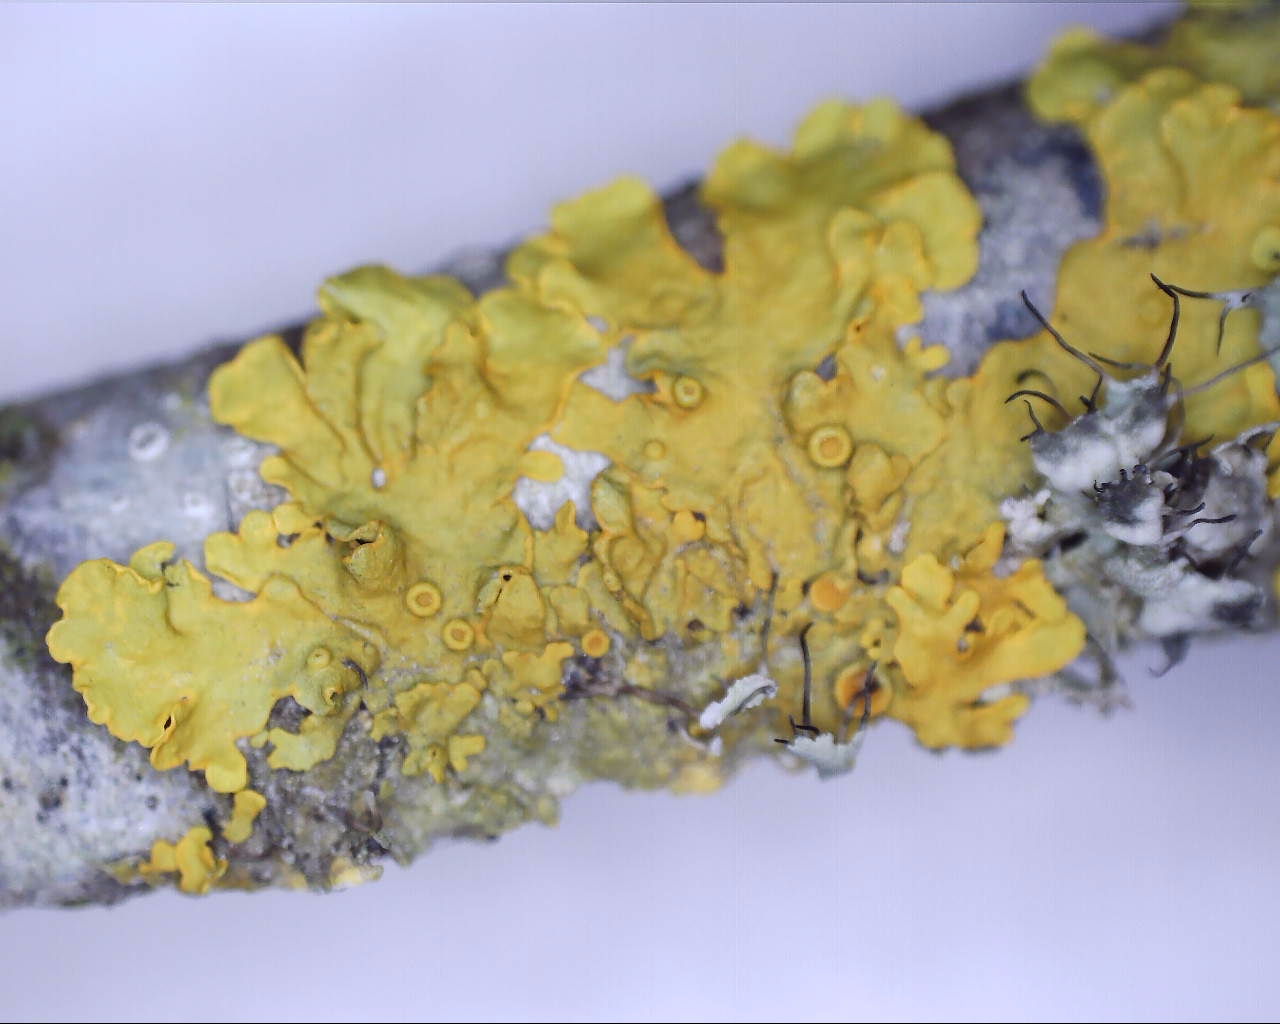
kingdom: Fungi
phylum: Ascomycota
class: Lecanoromycetes
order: Teloschistales
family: Teloschistaceae
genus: Xanthoria
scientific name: Xanthoria parietina
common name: almindelig væggelav
